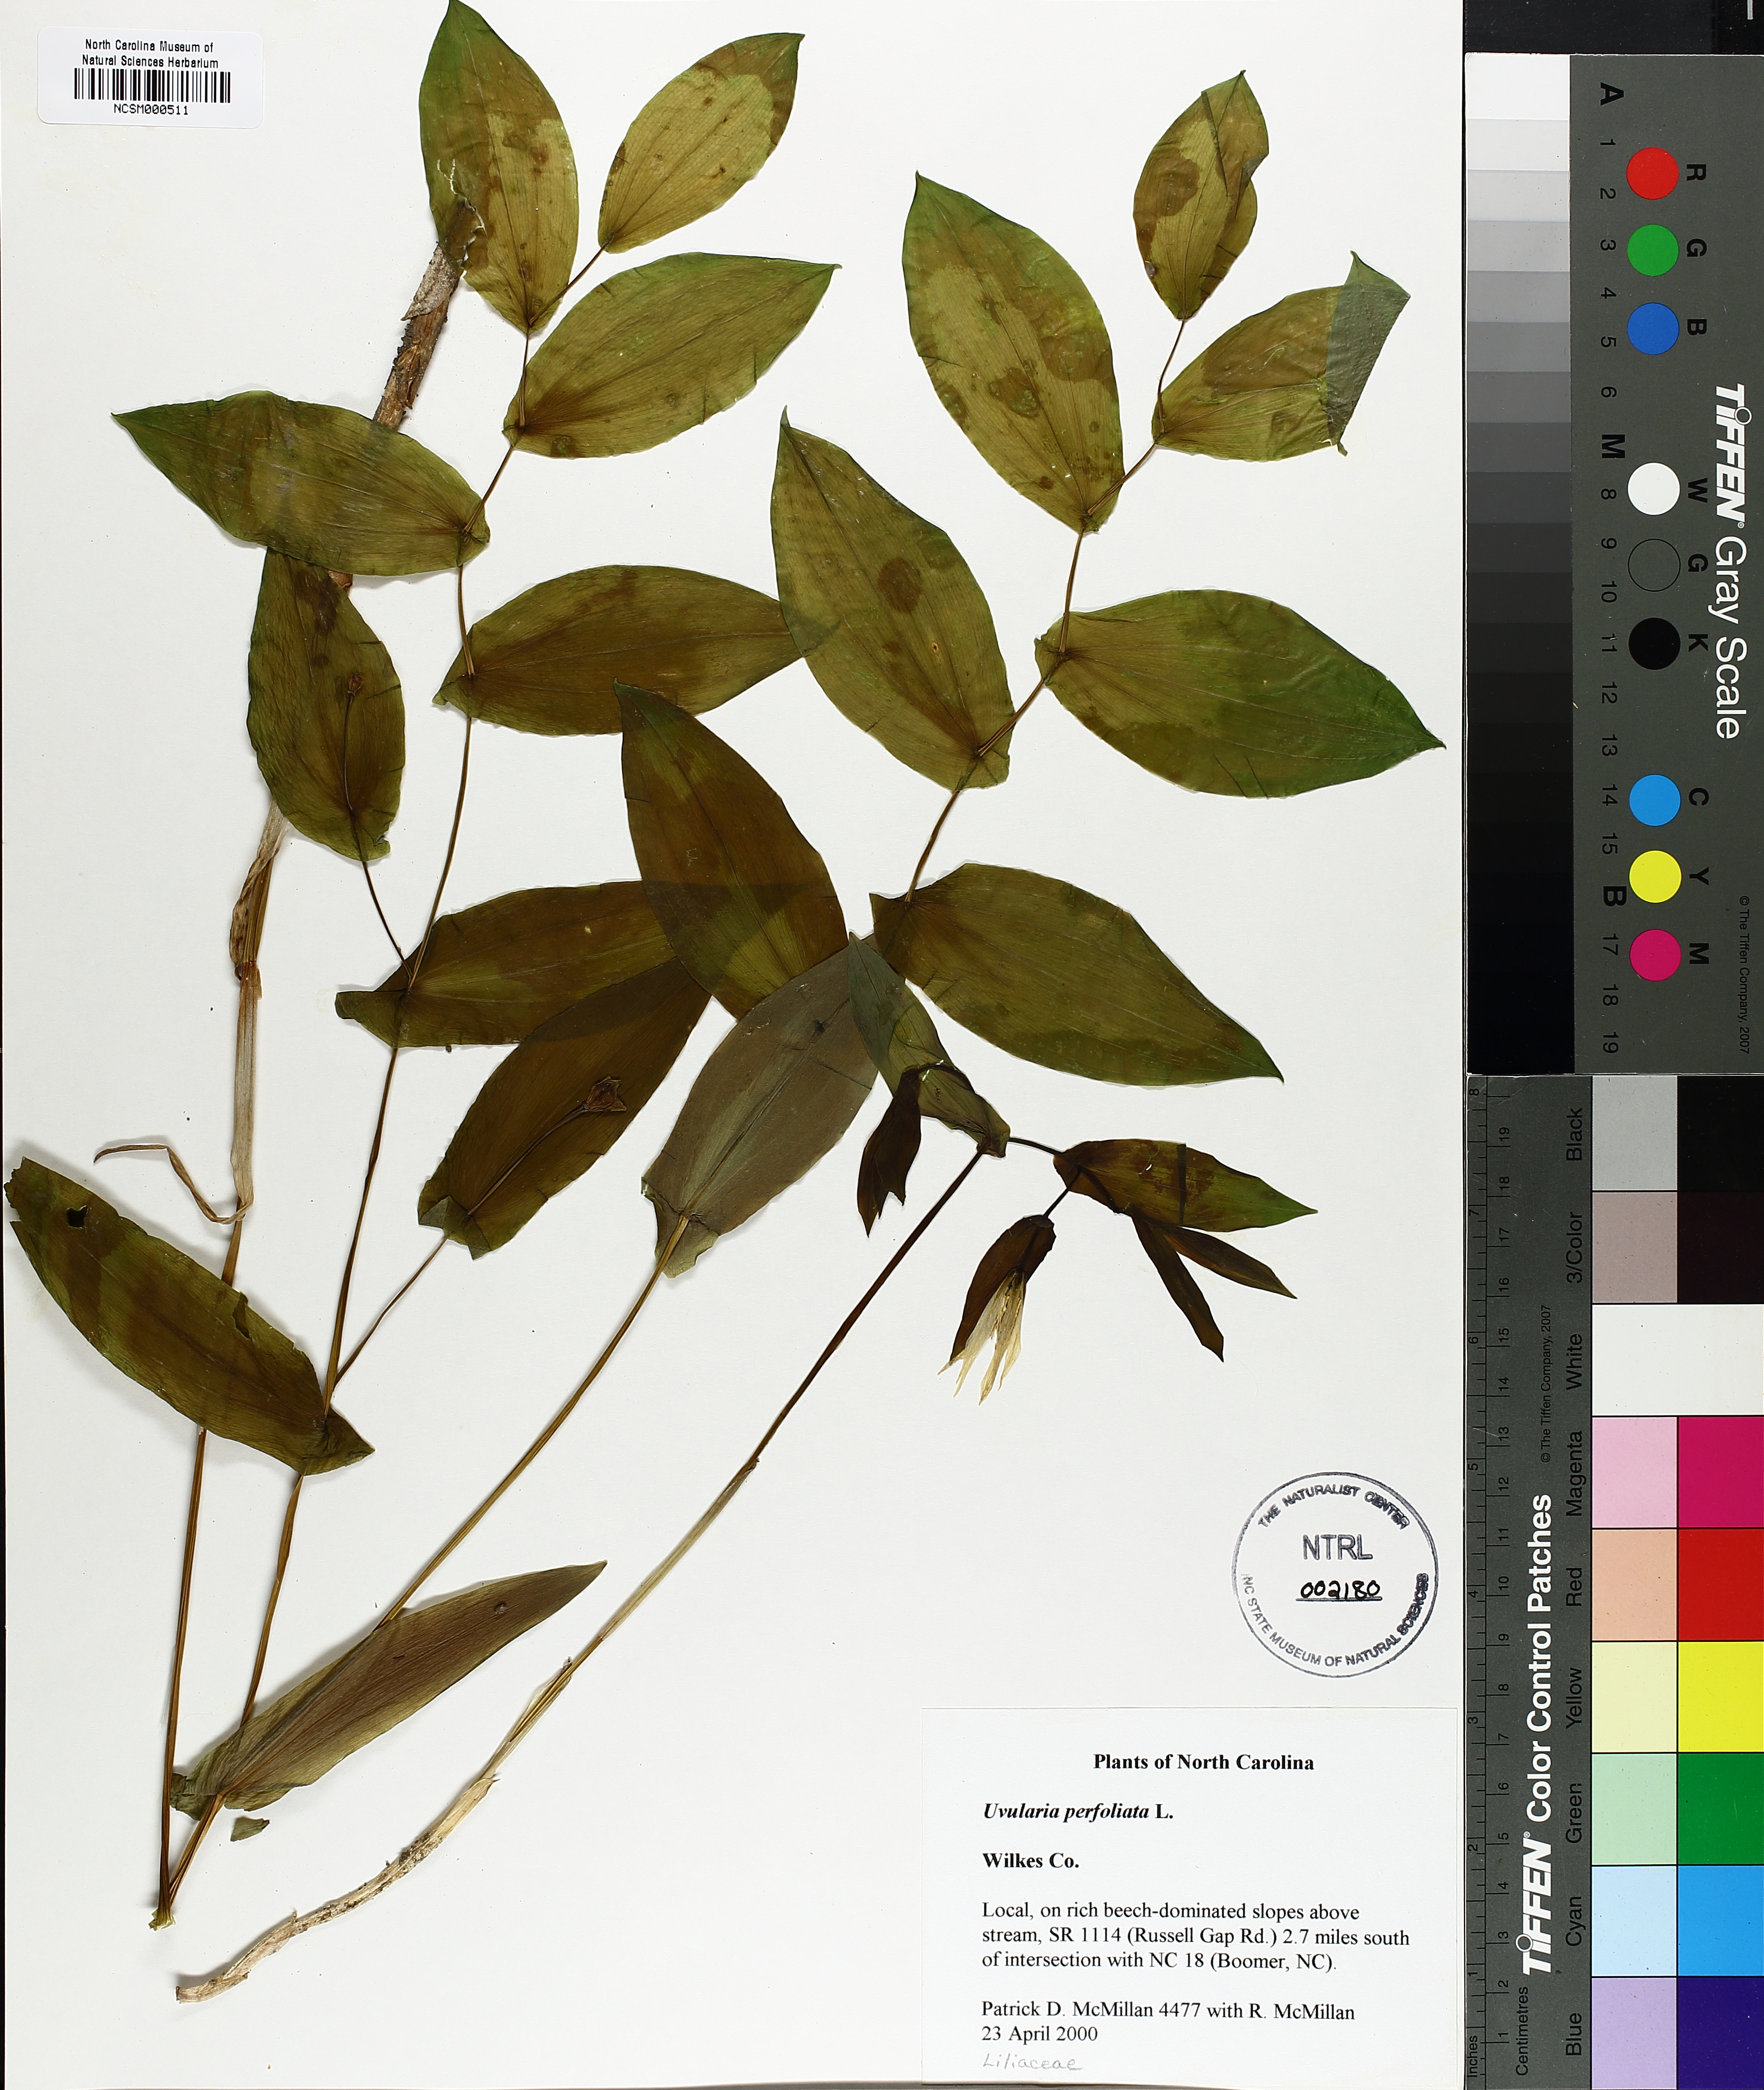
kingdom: Plantae
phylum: Tracheophyta
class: Liliopsida
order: Liliales
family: Colchicaceae
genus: Uvularia
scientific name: Uvularia perfoliata
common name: Perfoliate bellwort
